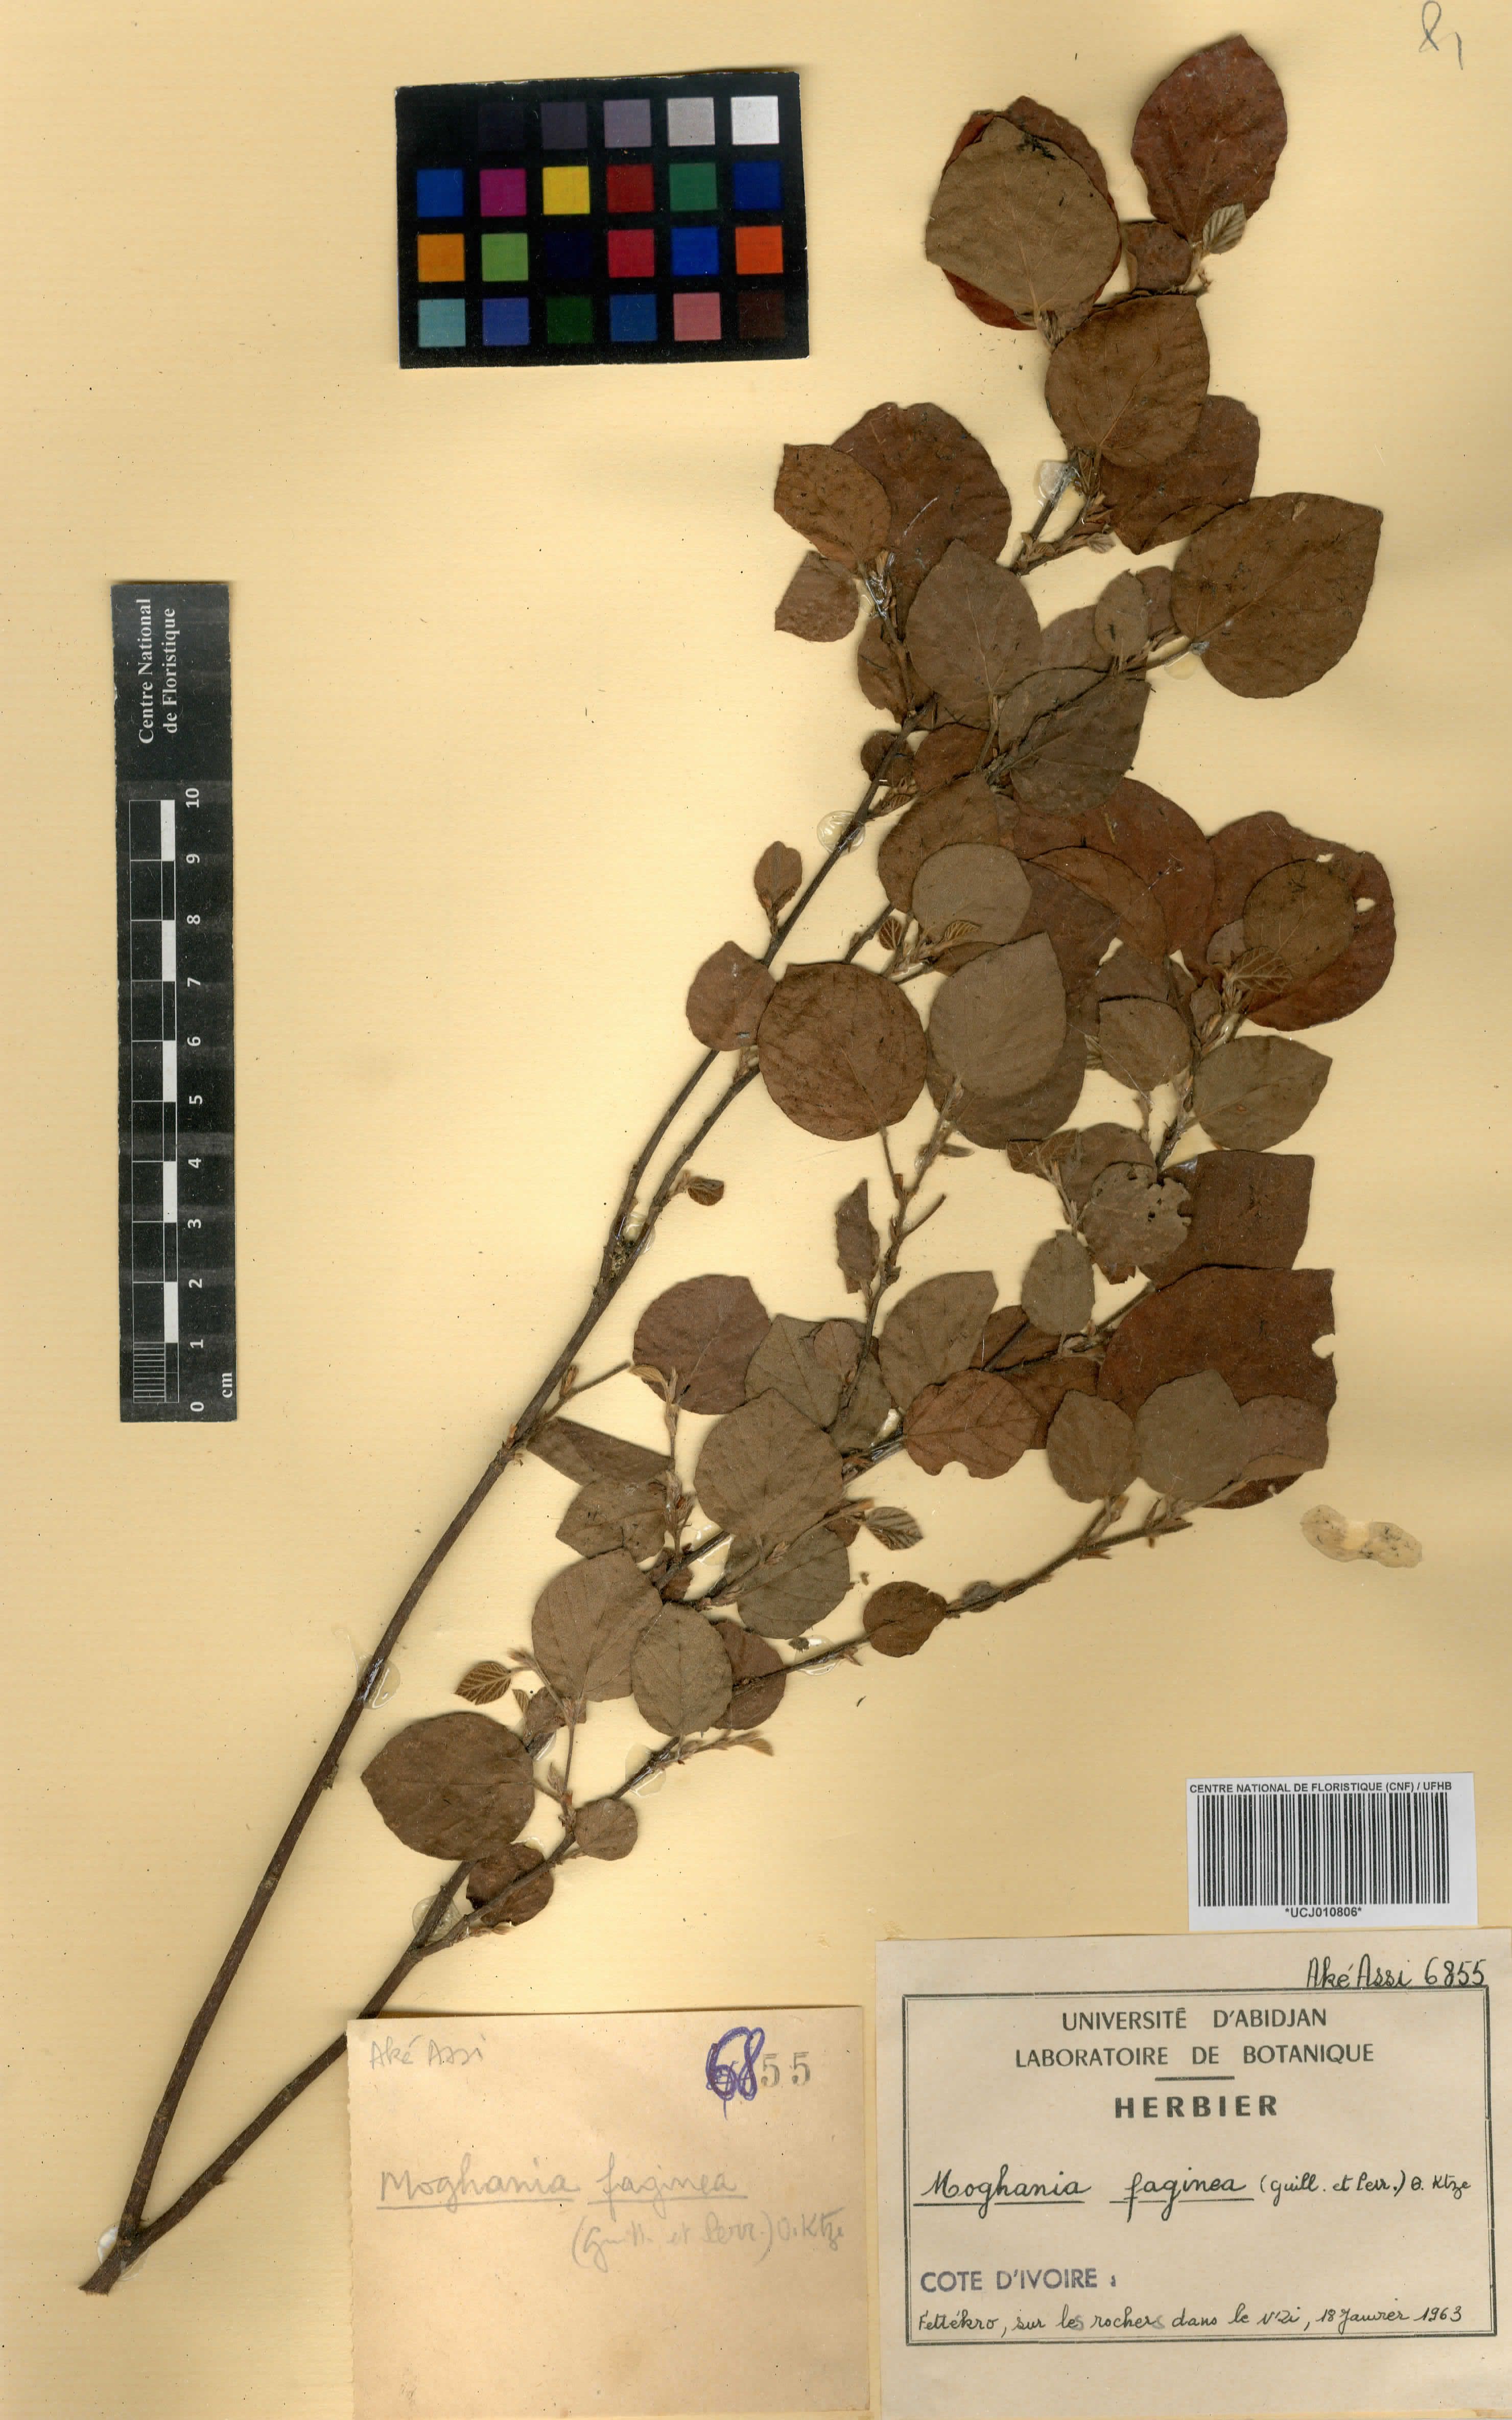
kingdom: Plantae
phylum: Tracheophyta
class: Magnoliopsida
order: Fabales
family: Fabaceae
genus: Flemingia
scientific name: Flemingia faginea
